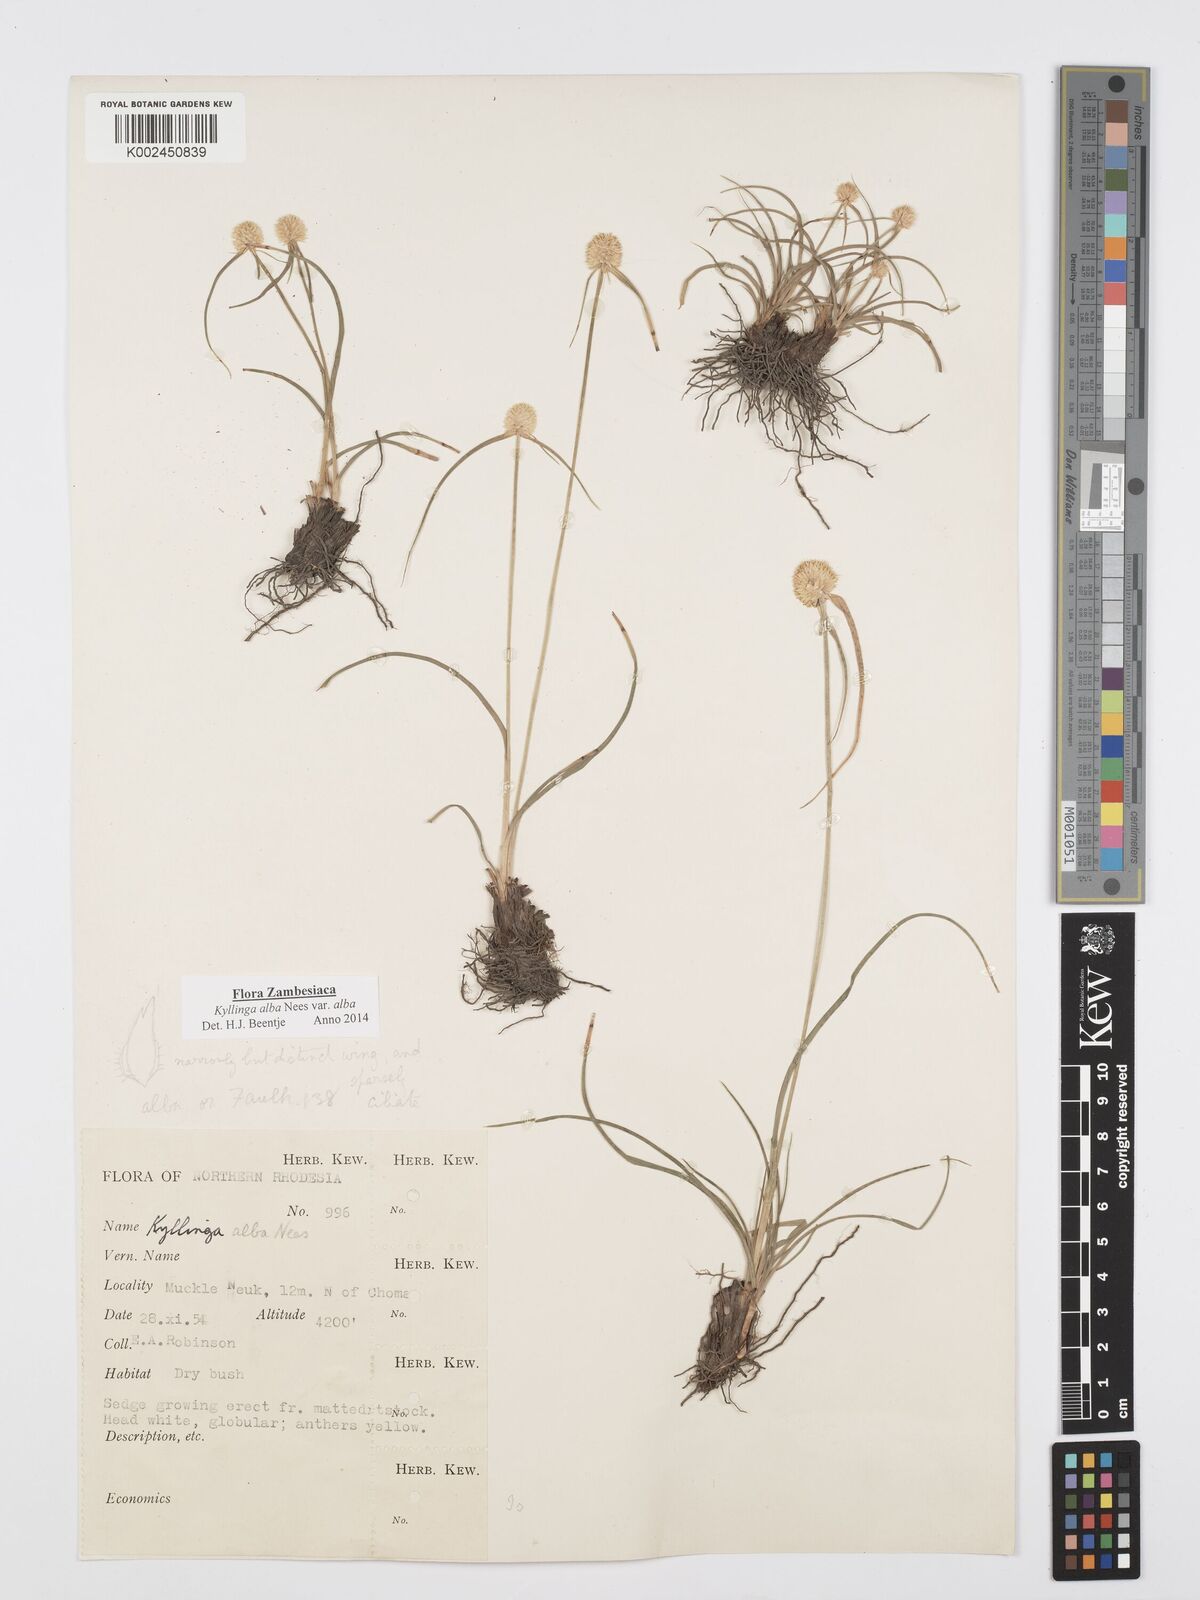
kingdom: Plantae
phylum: Tracheophyta
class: Liliopsida
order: Poales
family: Cyperaceae
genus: Cyperus
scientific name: Cyperus
